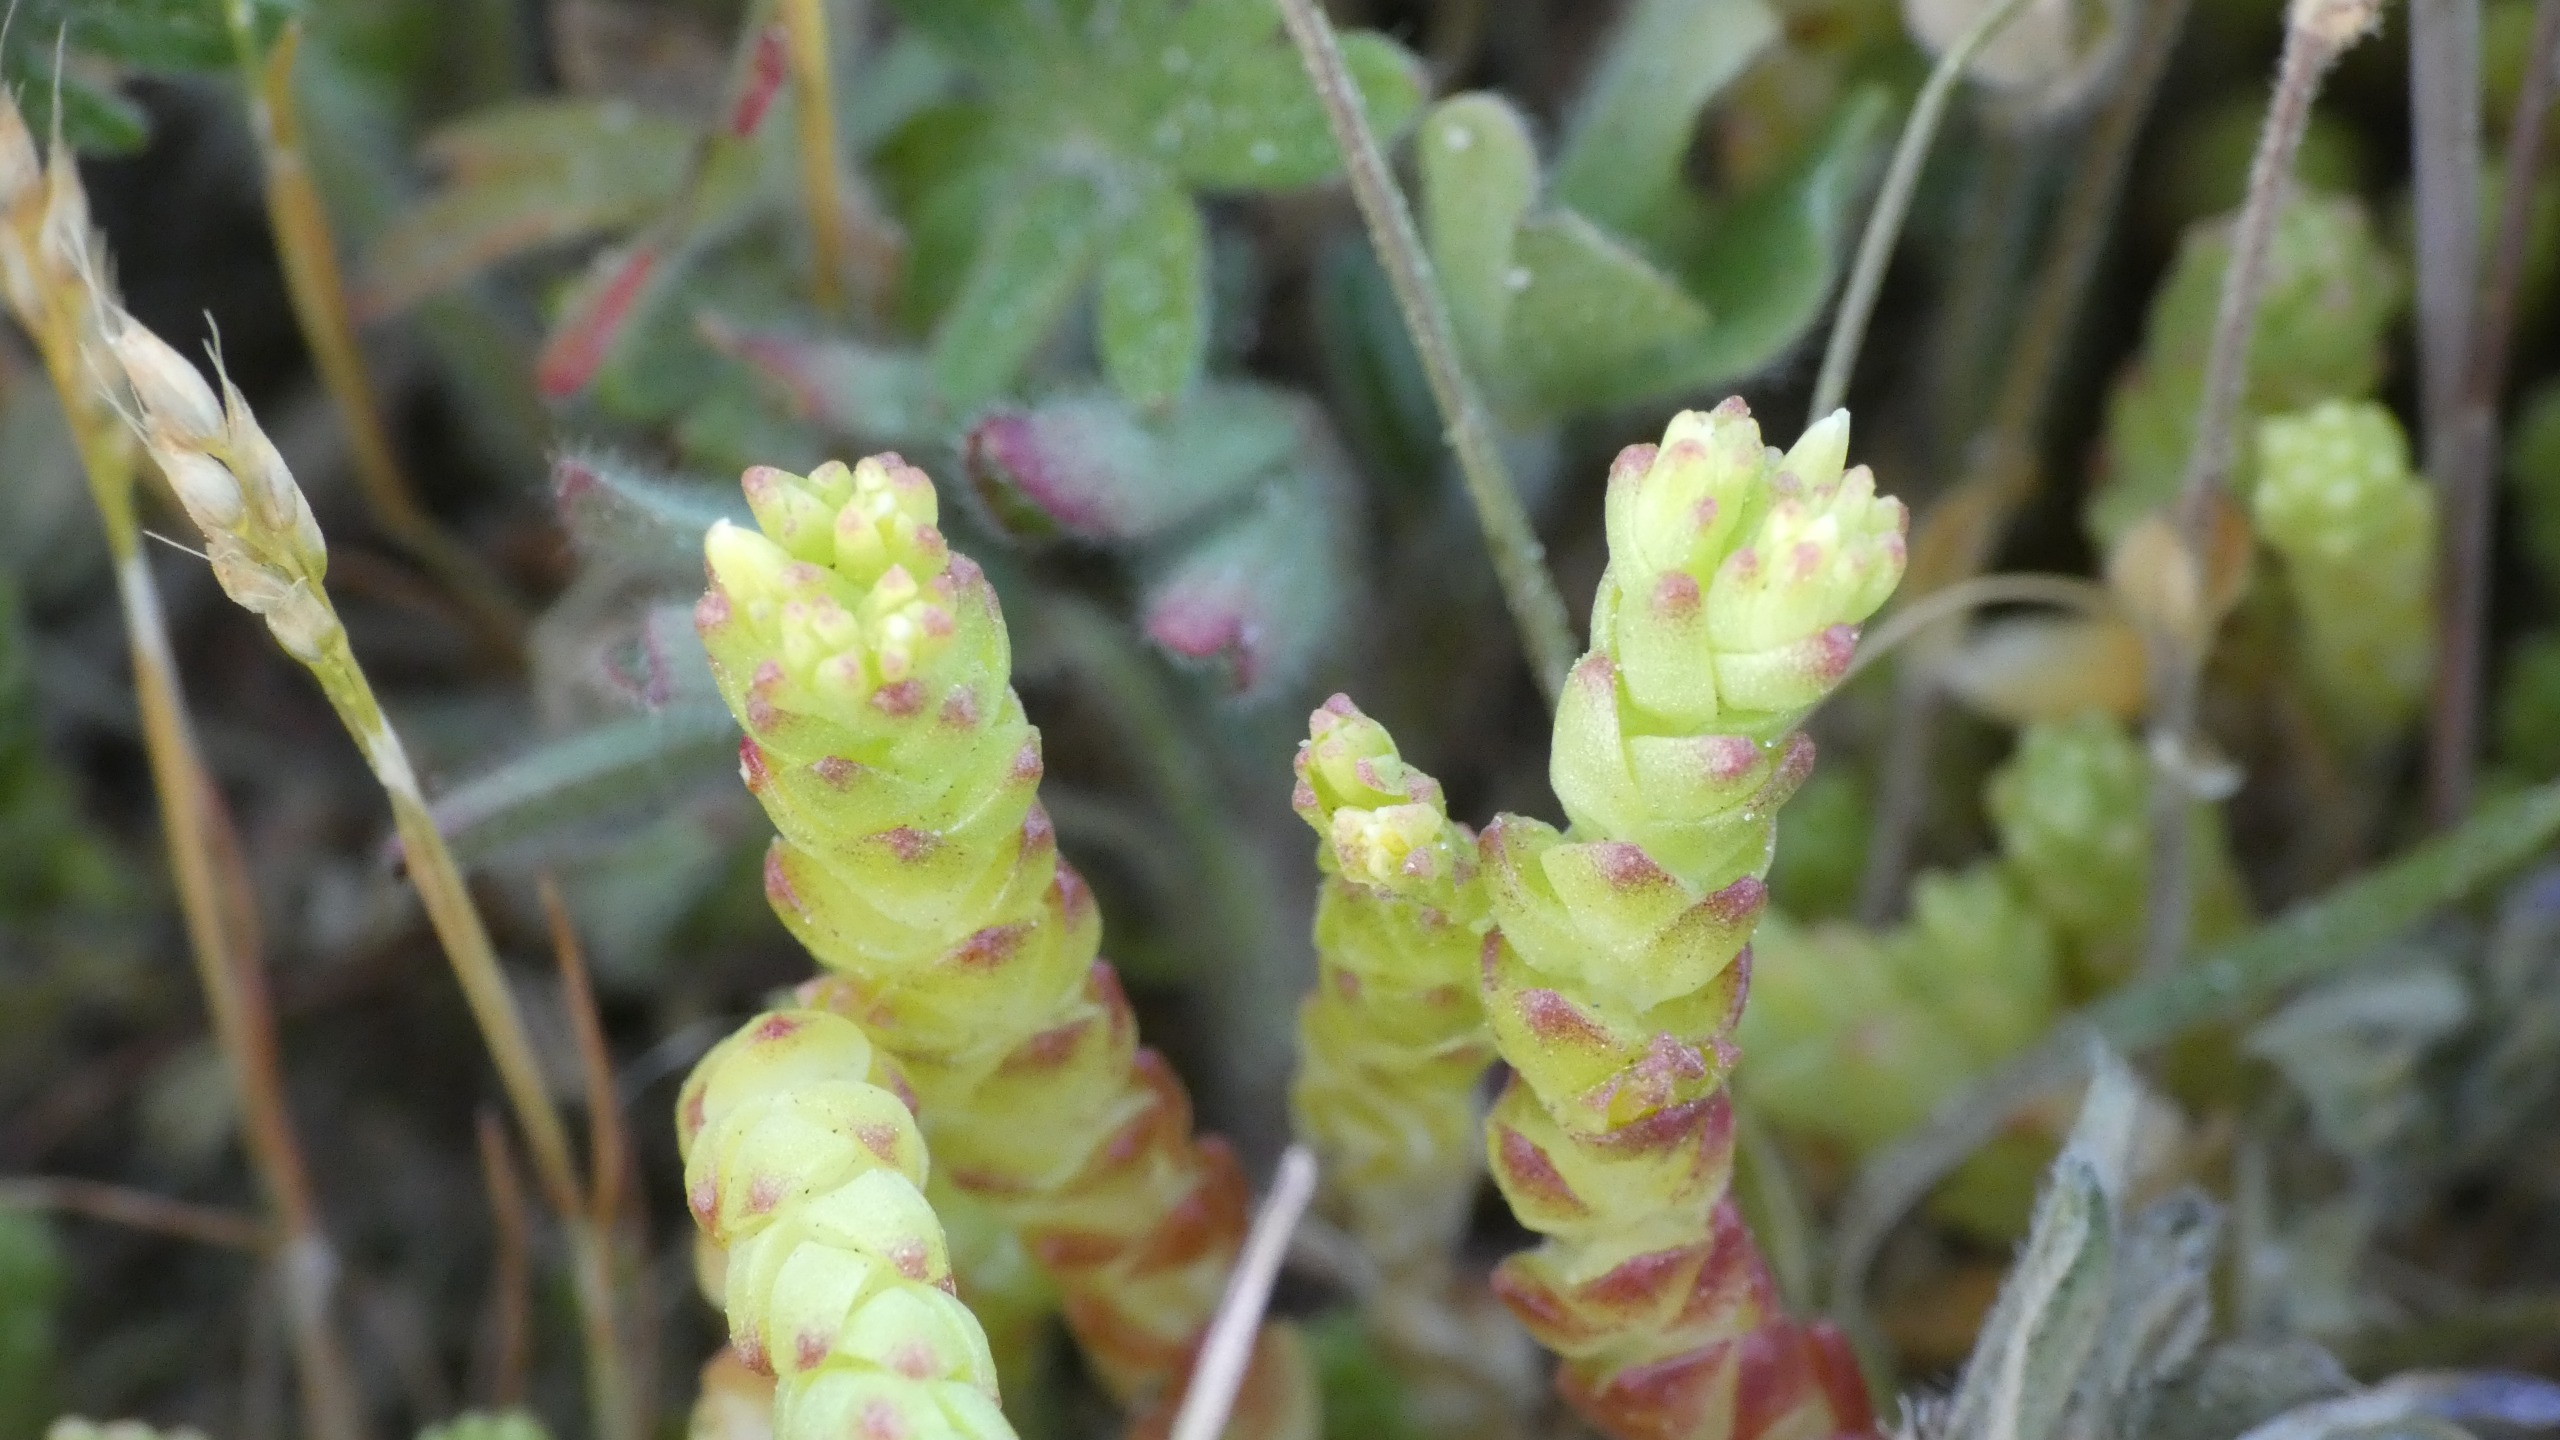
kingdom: Plantae
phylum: Tracheophyta
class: Magnoliopsida
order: Saxifragales
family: Crassulaceae
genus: Sedum
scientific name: Sedum acre
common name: Bidende stenurt
